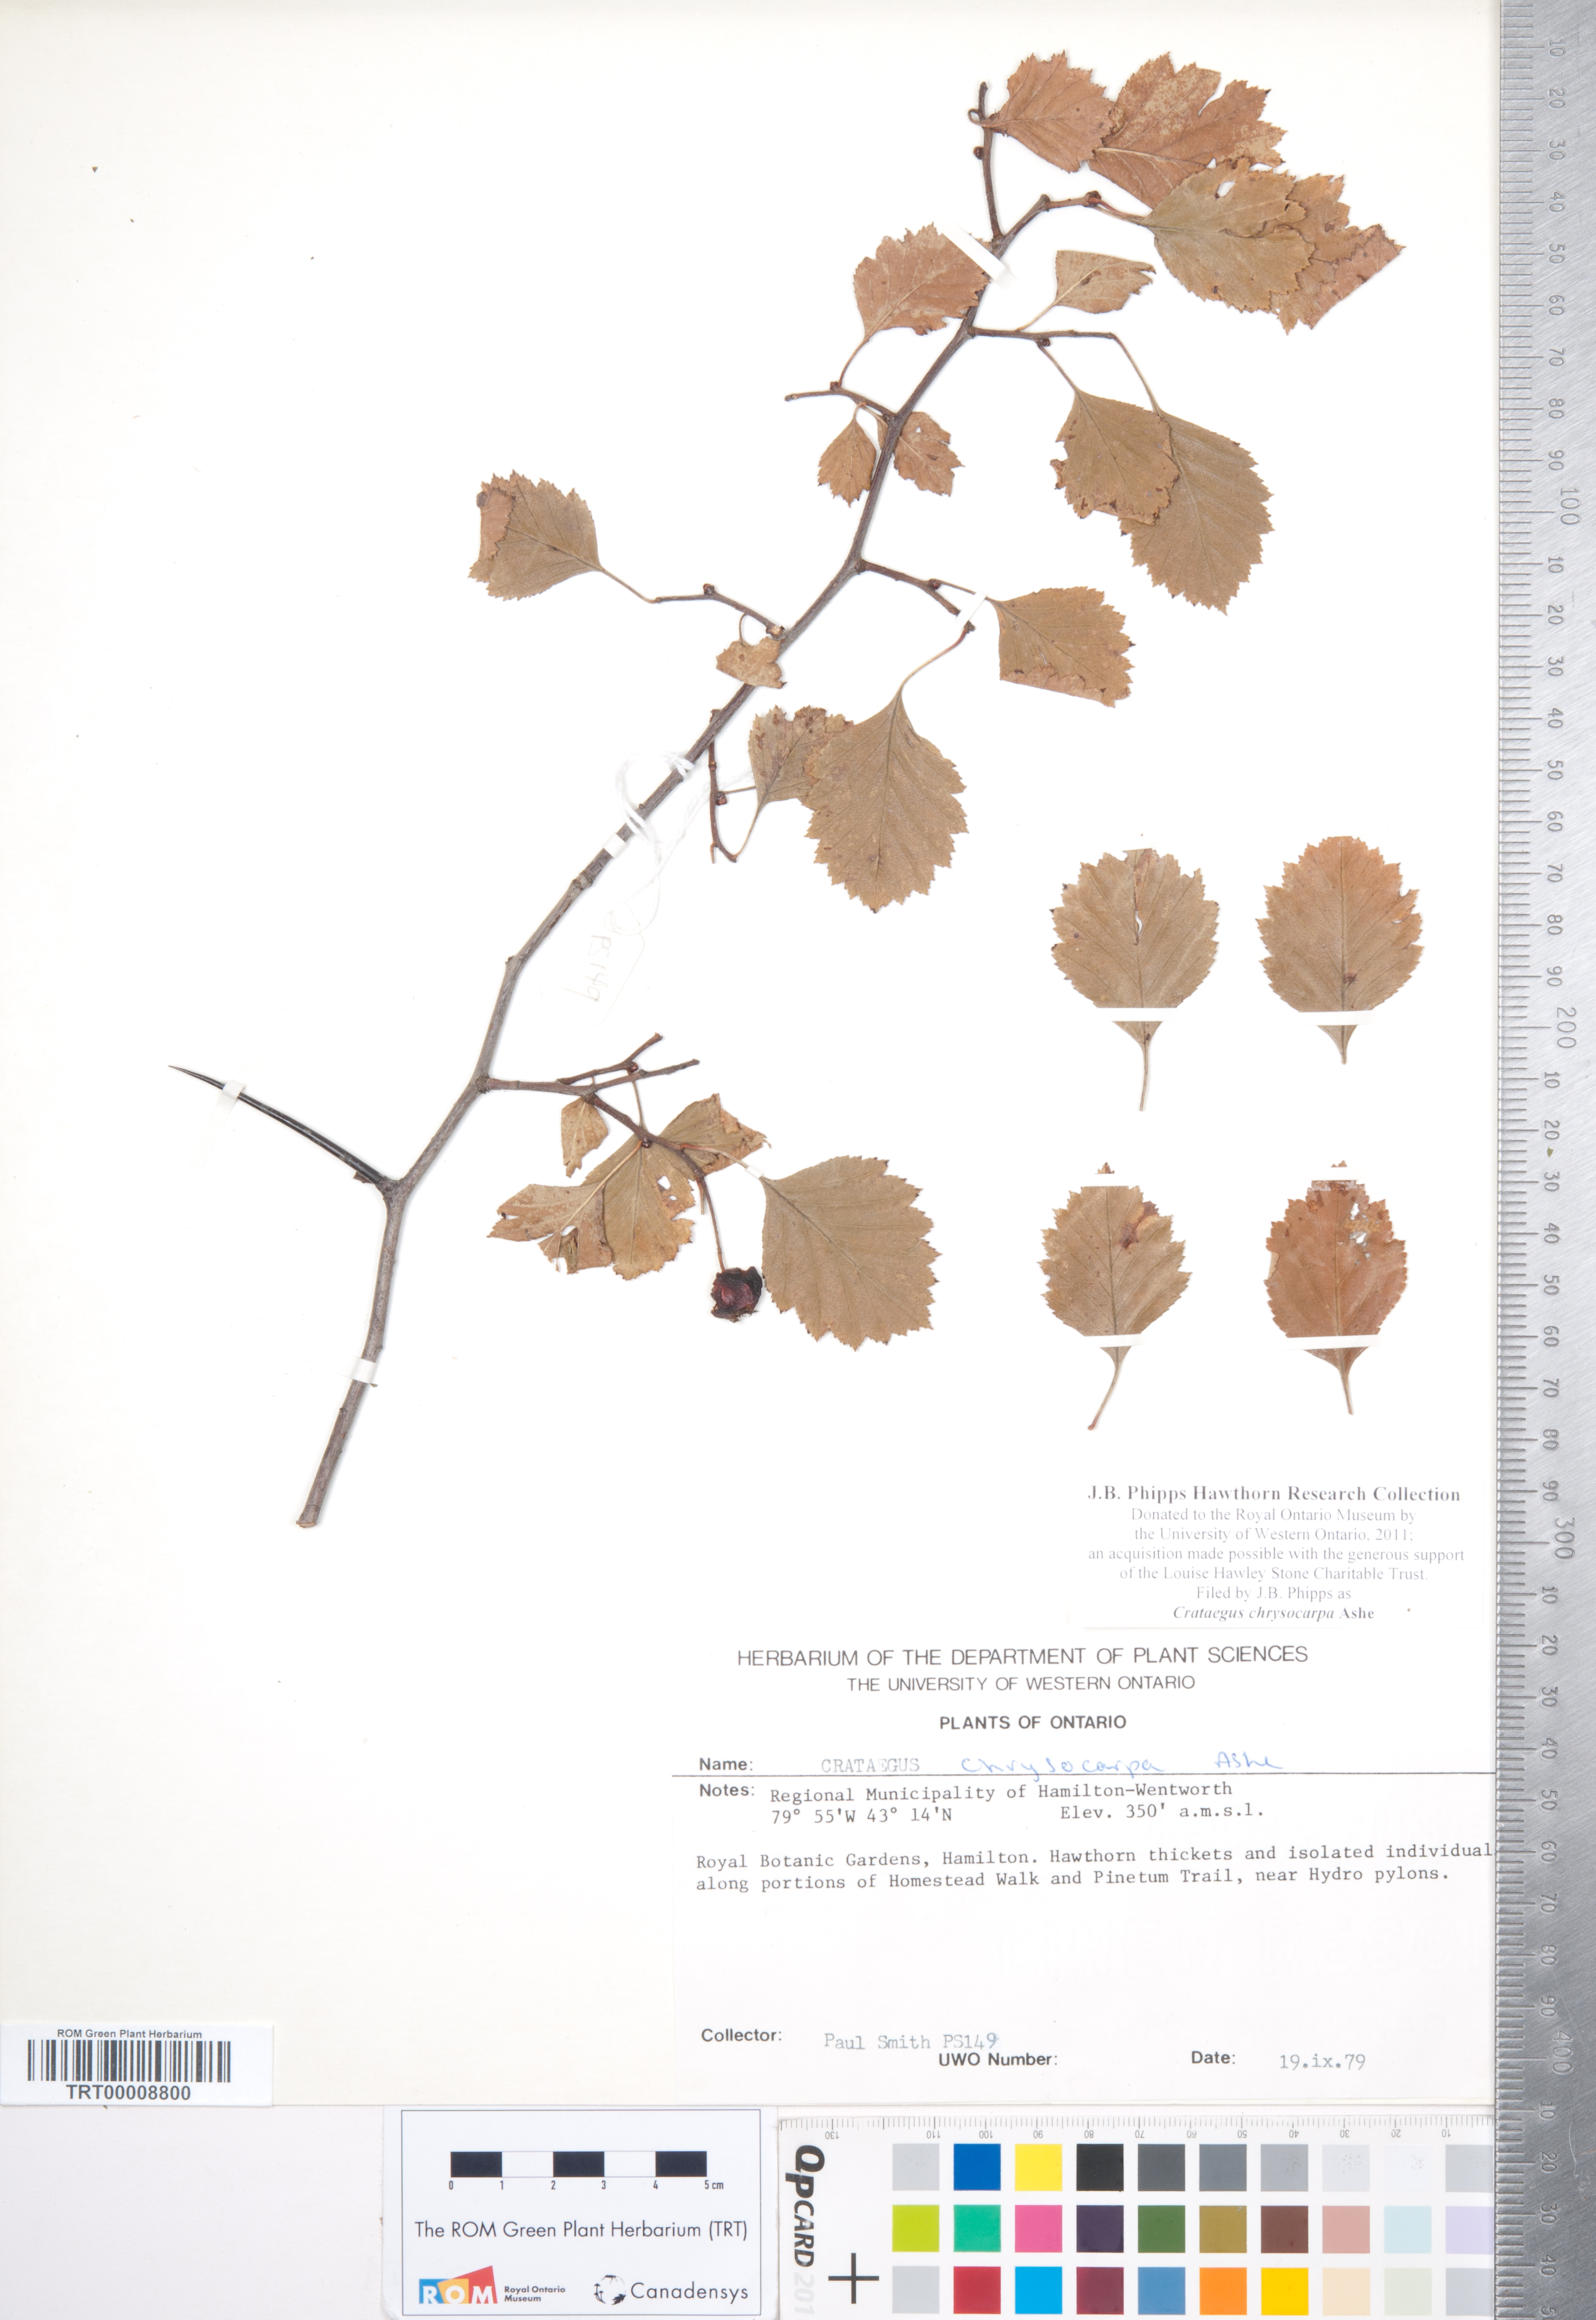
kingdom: Plantae
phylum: Tracheophyta
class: Magnoliopsida
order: Rosales
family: Rosaceae
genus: Crataegus
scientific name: Crataegus chrysocarpa
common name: Fire-berry hawthorn
